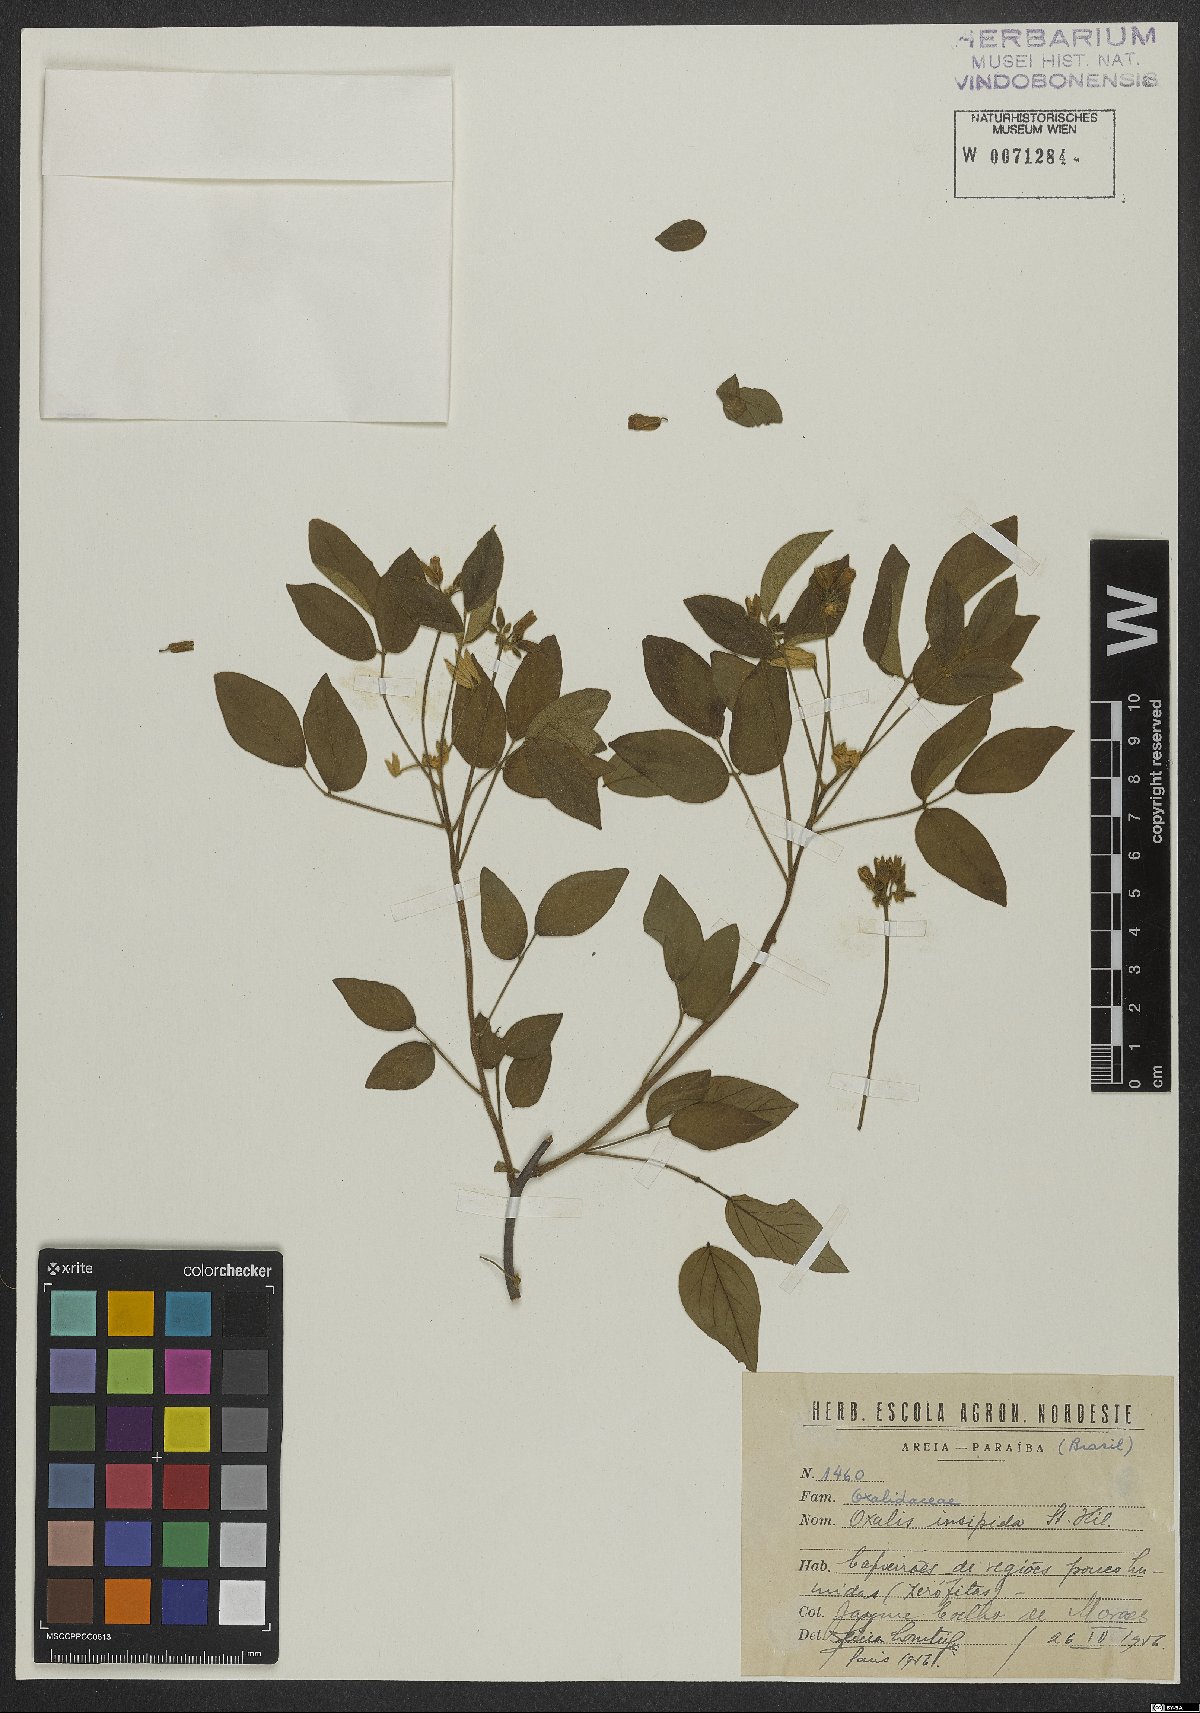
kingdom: Plantae
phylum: Tracheophyta
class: Magnoliopsida
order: Oxalidales
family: Oxalidaceae
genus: Oxalis
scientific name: Oxalis psoraleoides
